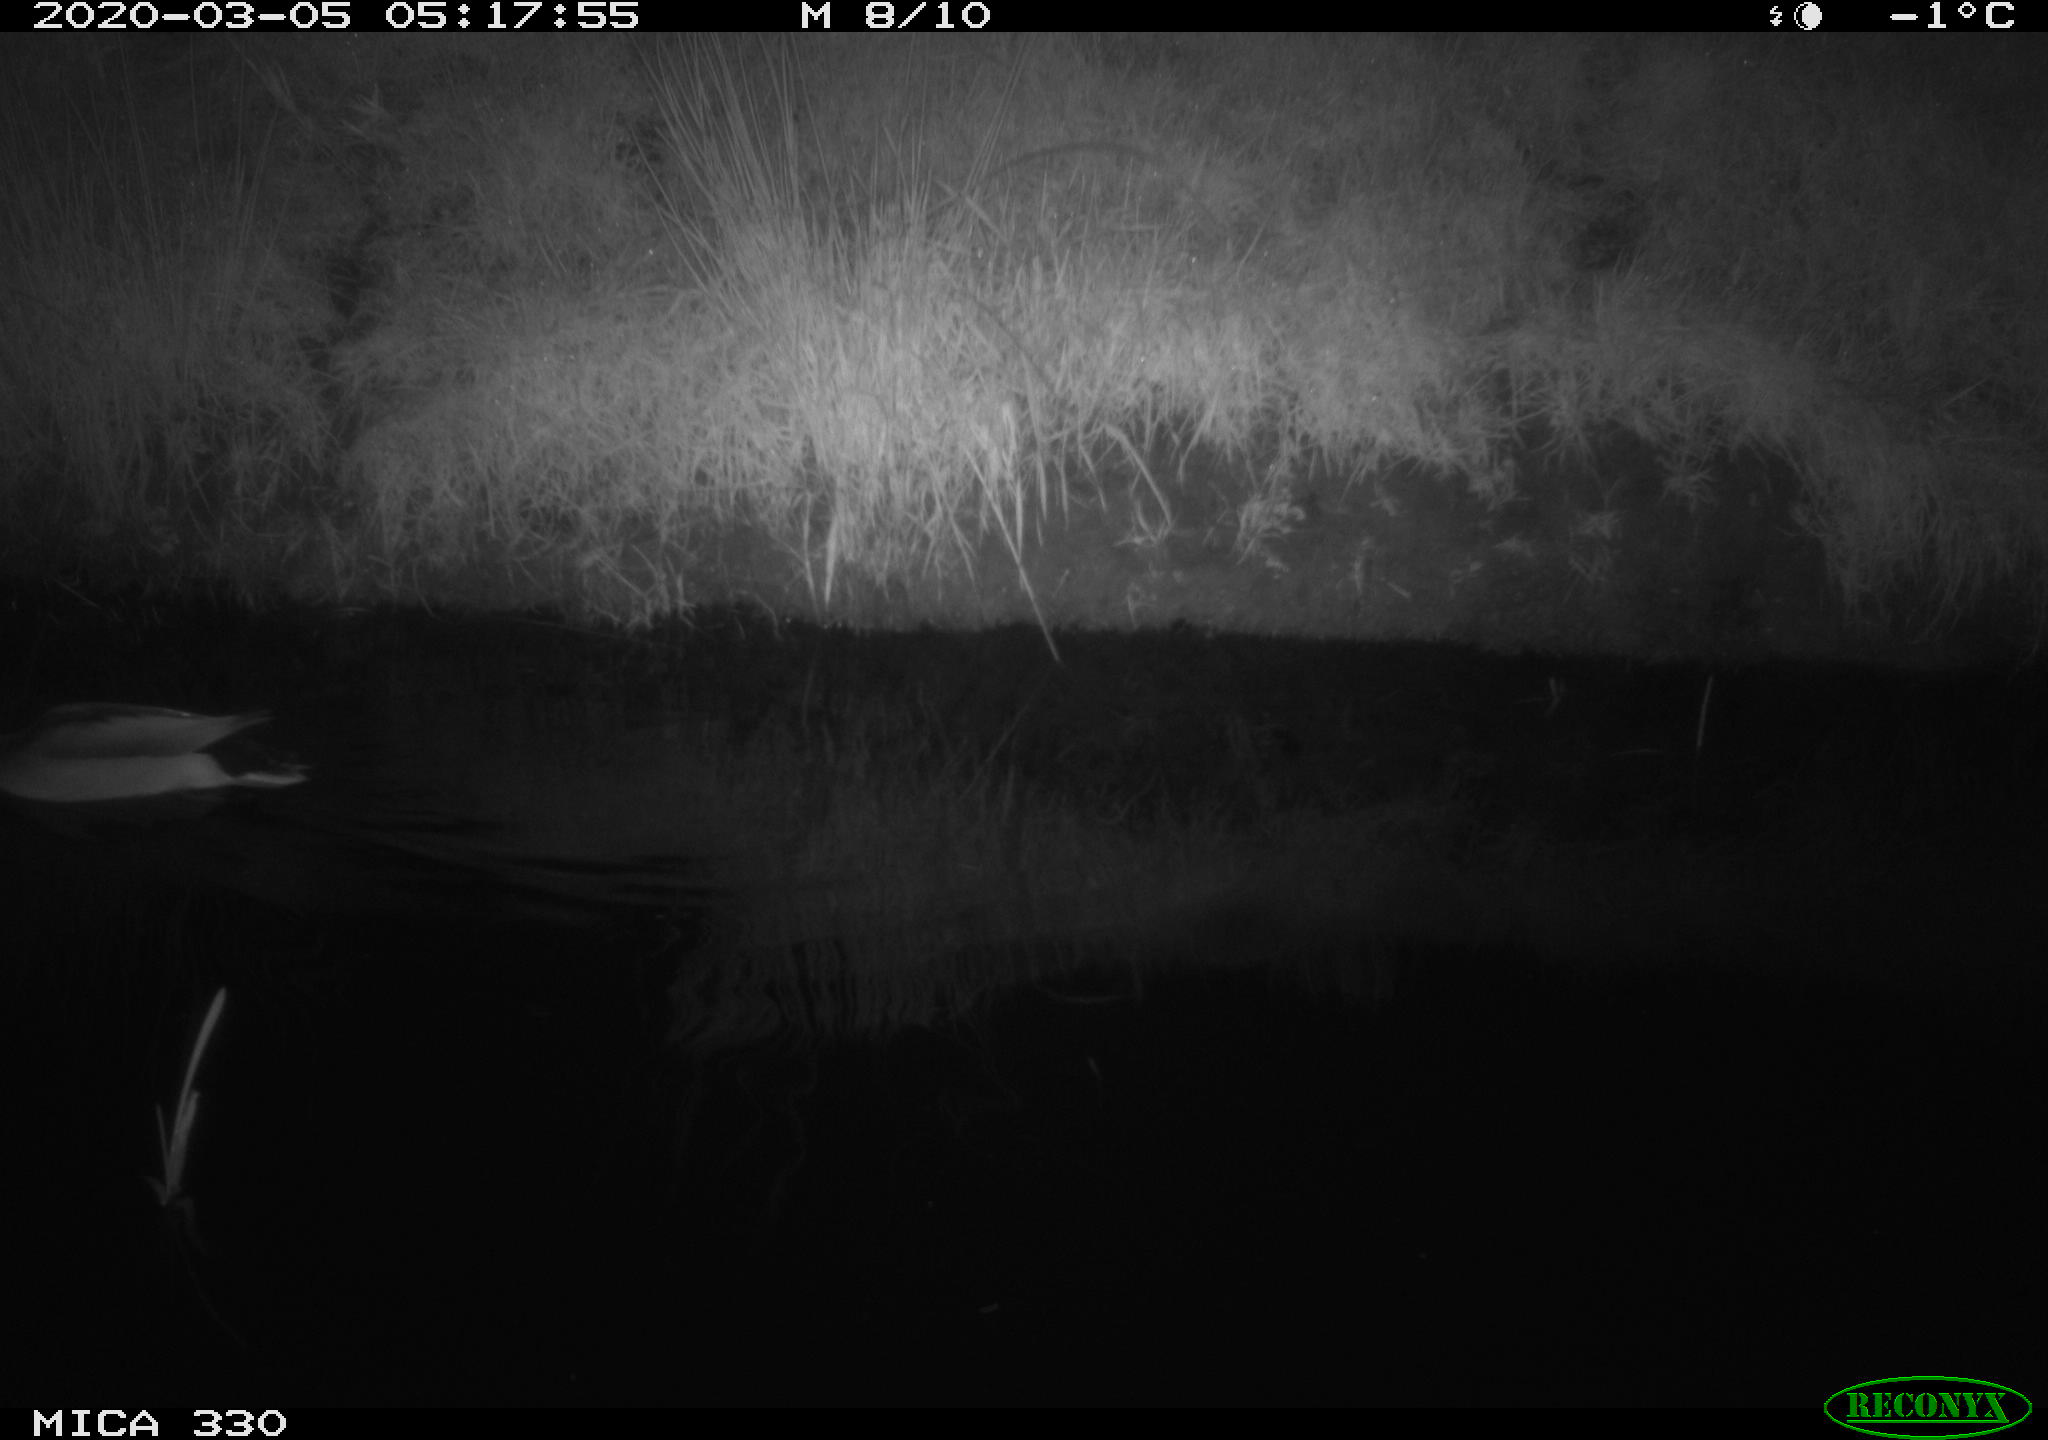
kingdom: Animalia
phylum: Chordata
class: Aves
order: Anseriformes
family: Anatidae
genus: Anas
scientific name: Anas platyrhynchos
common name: Mallard
